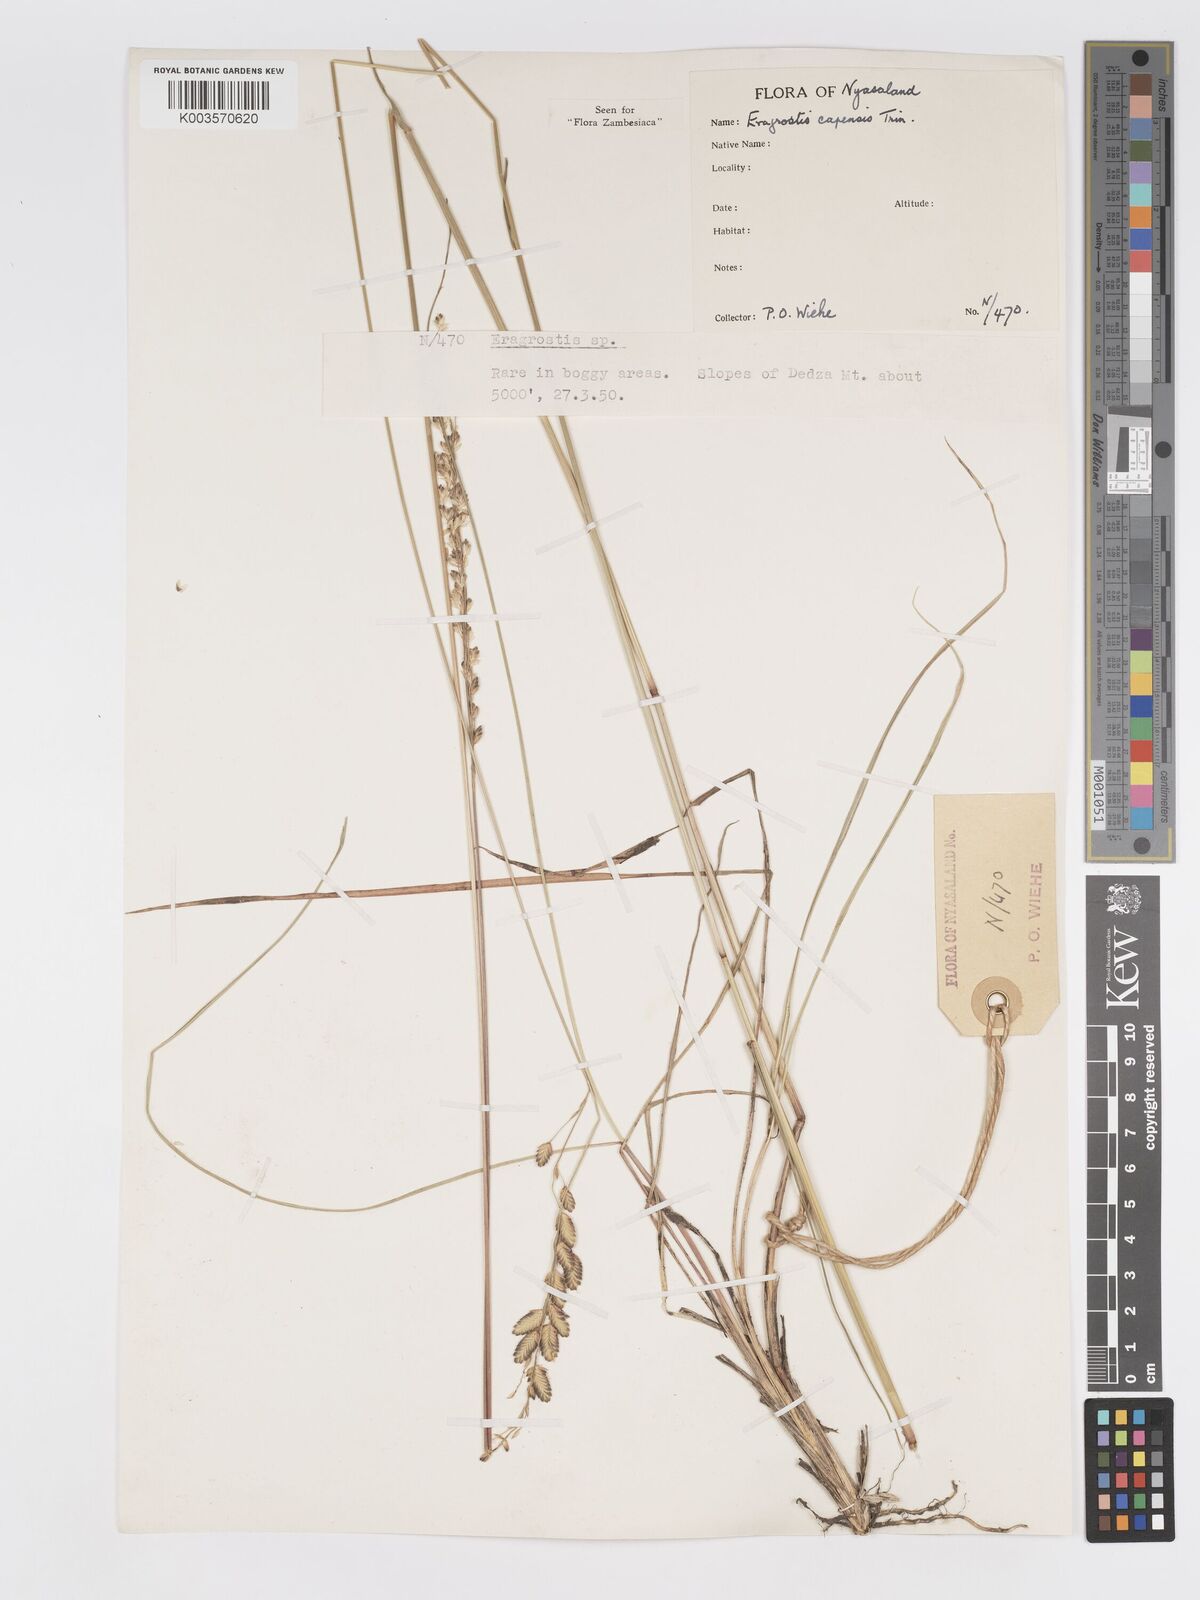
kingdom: Plantae
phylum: Tracheophyta
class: Liliopsida
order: Poales
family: Poaceae
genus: Eragrostis
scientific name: Eragrostis capensis
